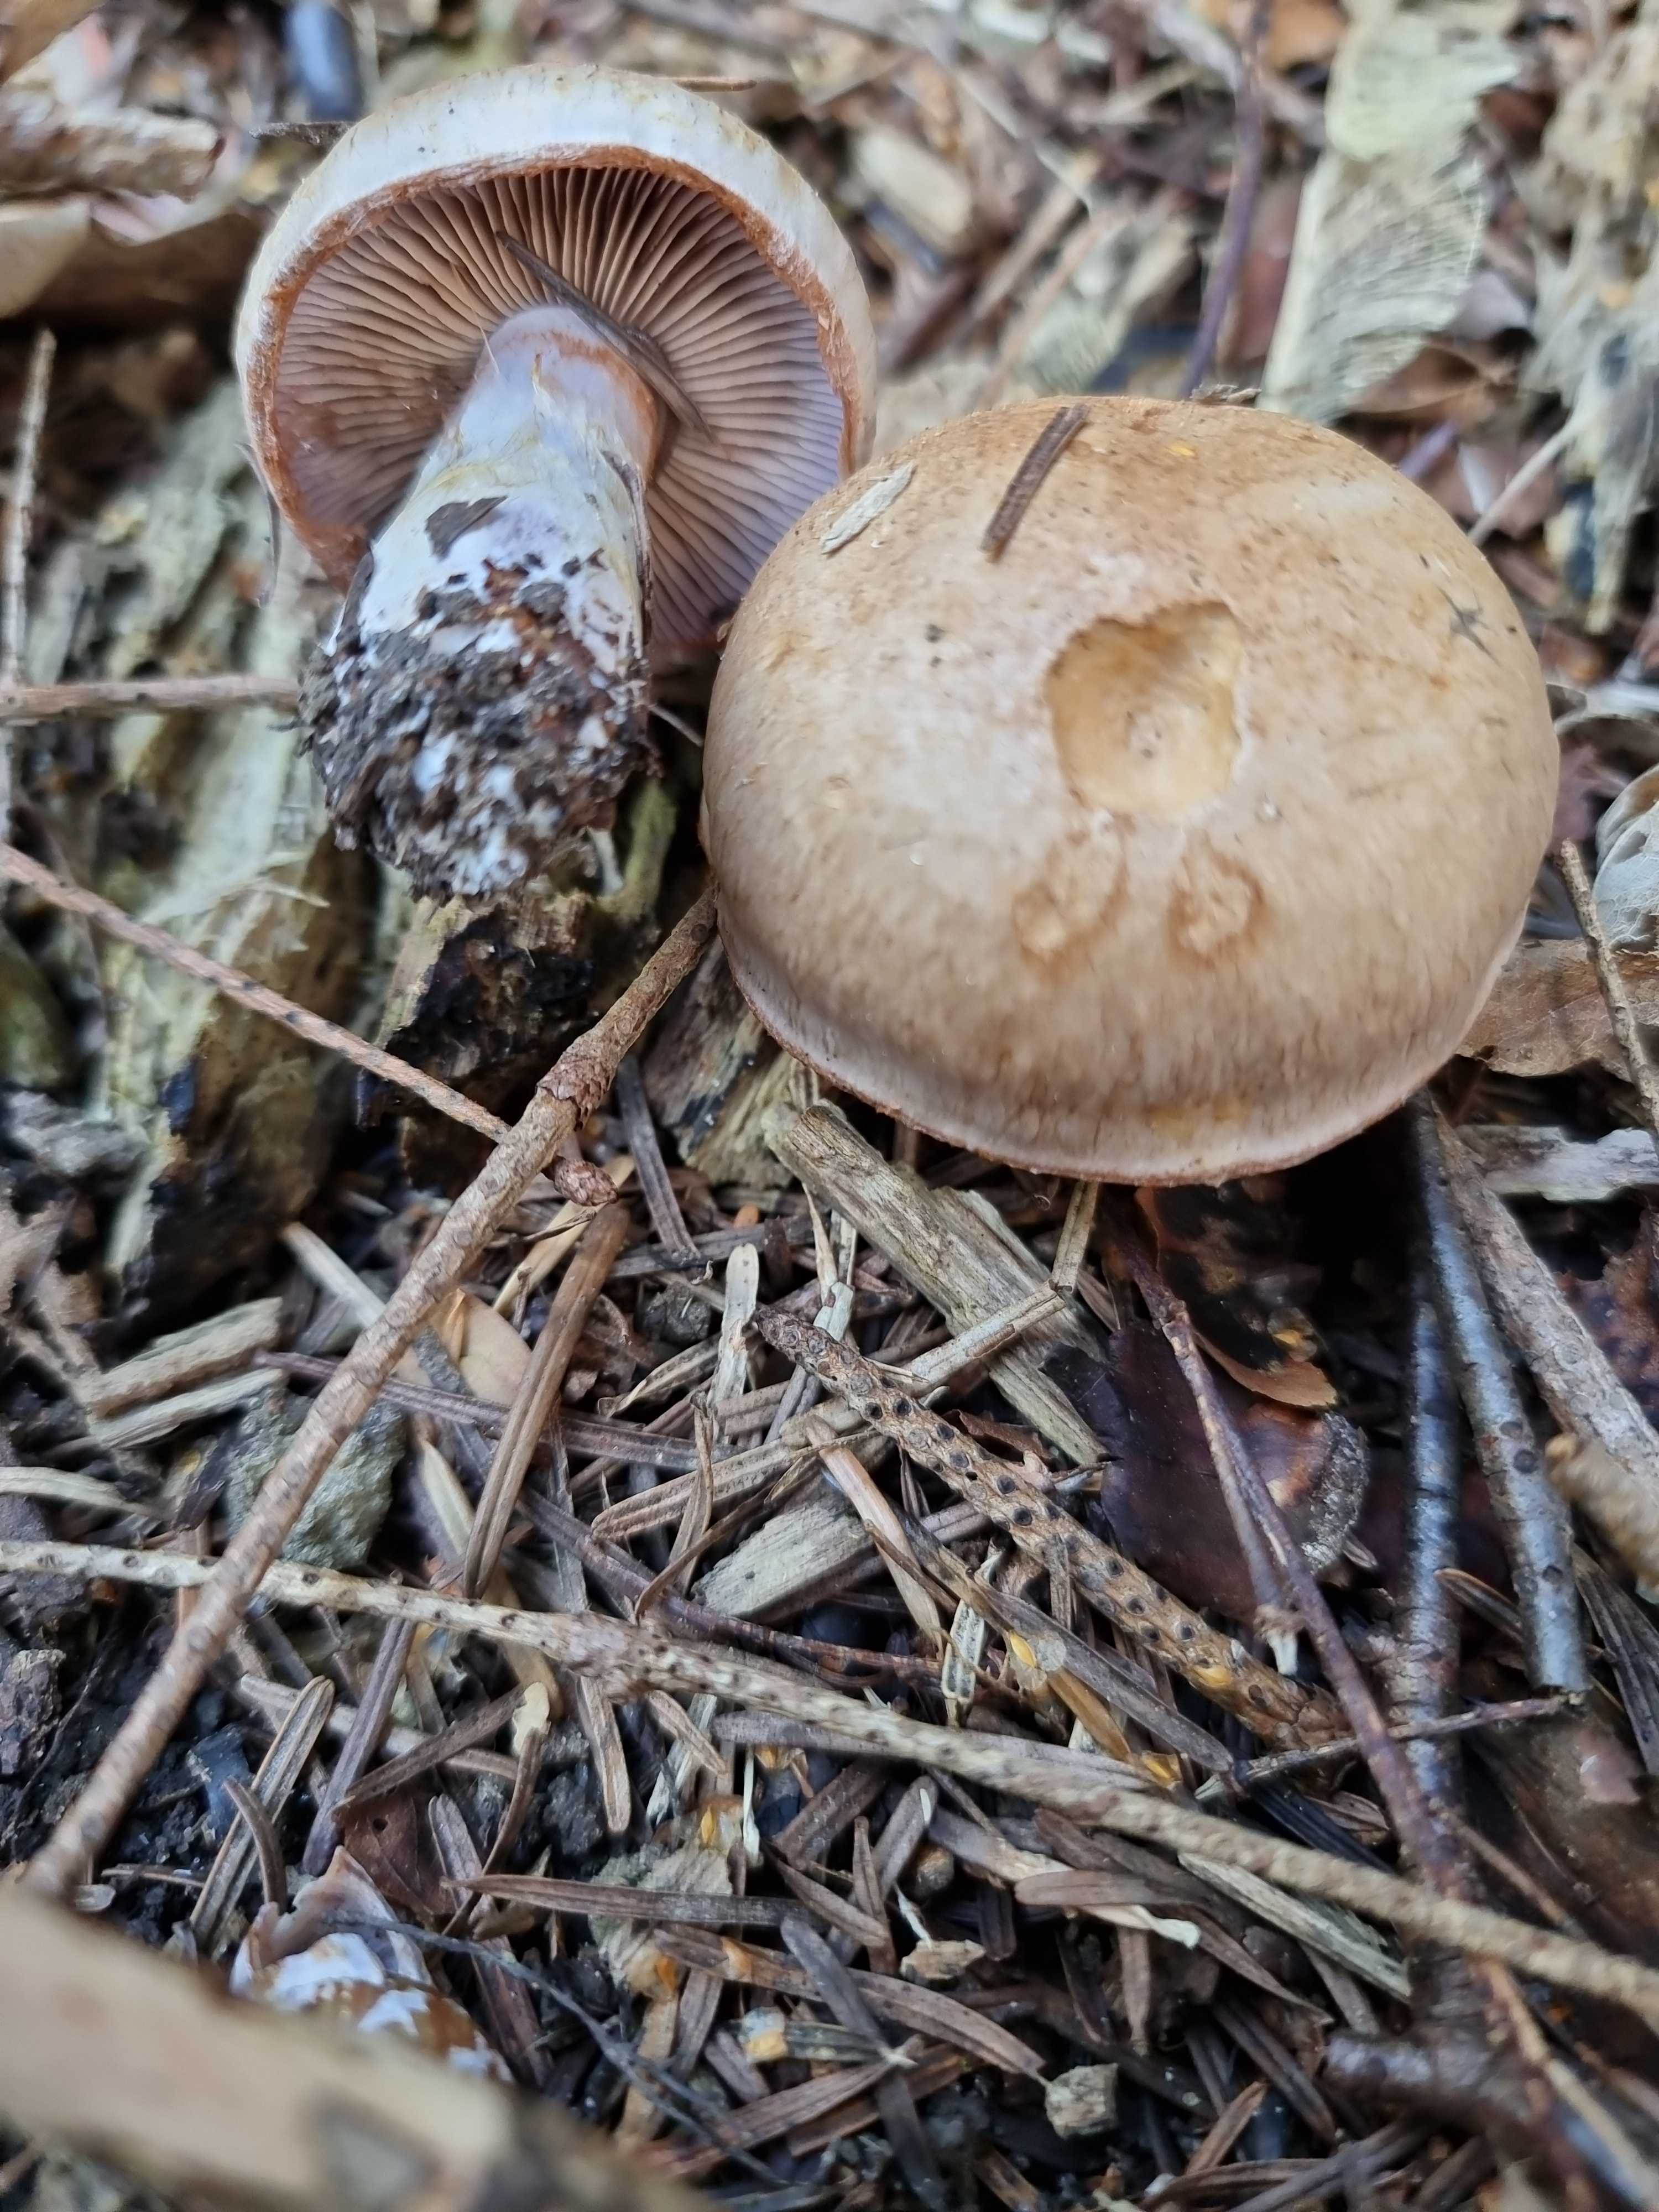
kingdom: Fungi
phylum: Basidiomycota
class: Agaricomycetes
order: Agaricales
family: Cortinariaceae
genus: Cortinarius
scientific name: Cortinarius
